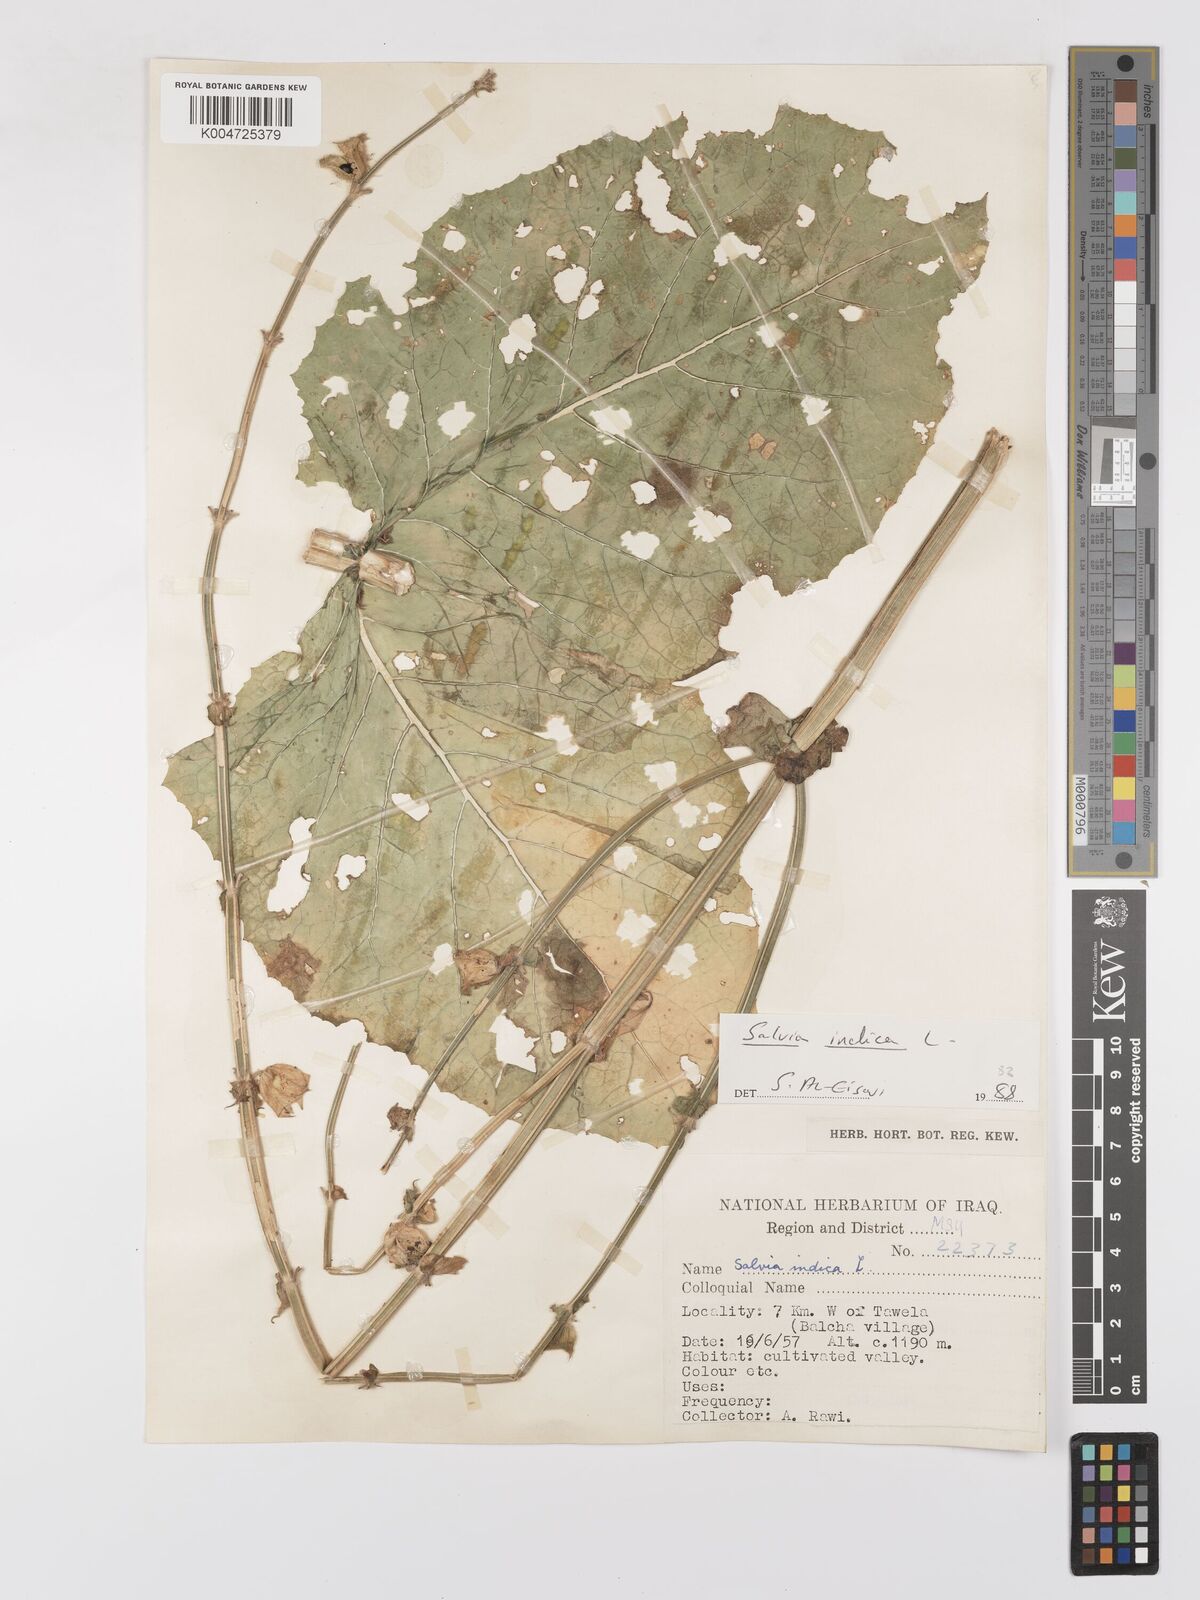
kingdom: Plantae
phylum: Tracheophyta
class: Magnoliopsida
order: Lamiales
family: Lamiaceae
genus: Salvia
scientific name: Salvia indica
